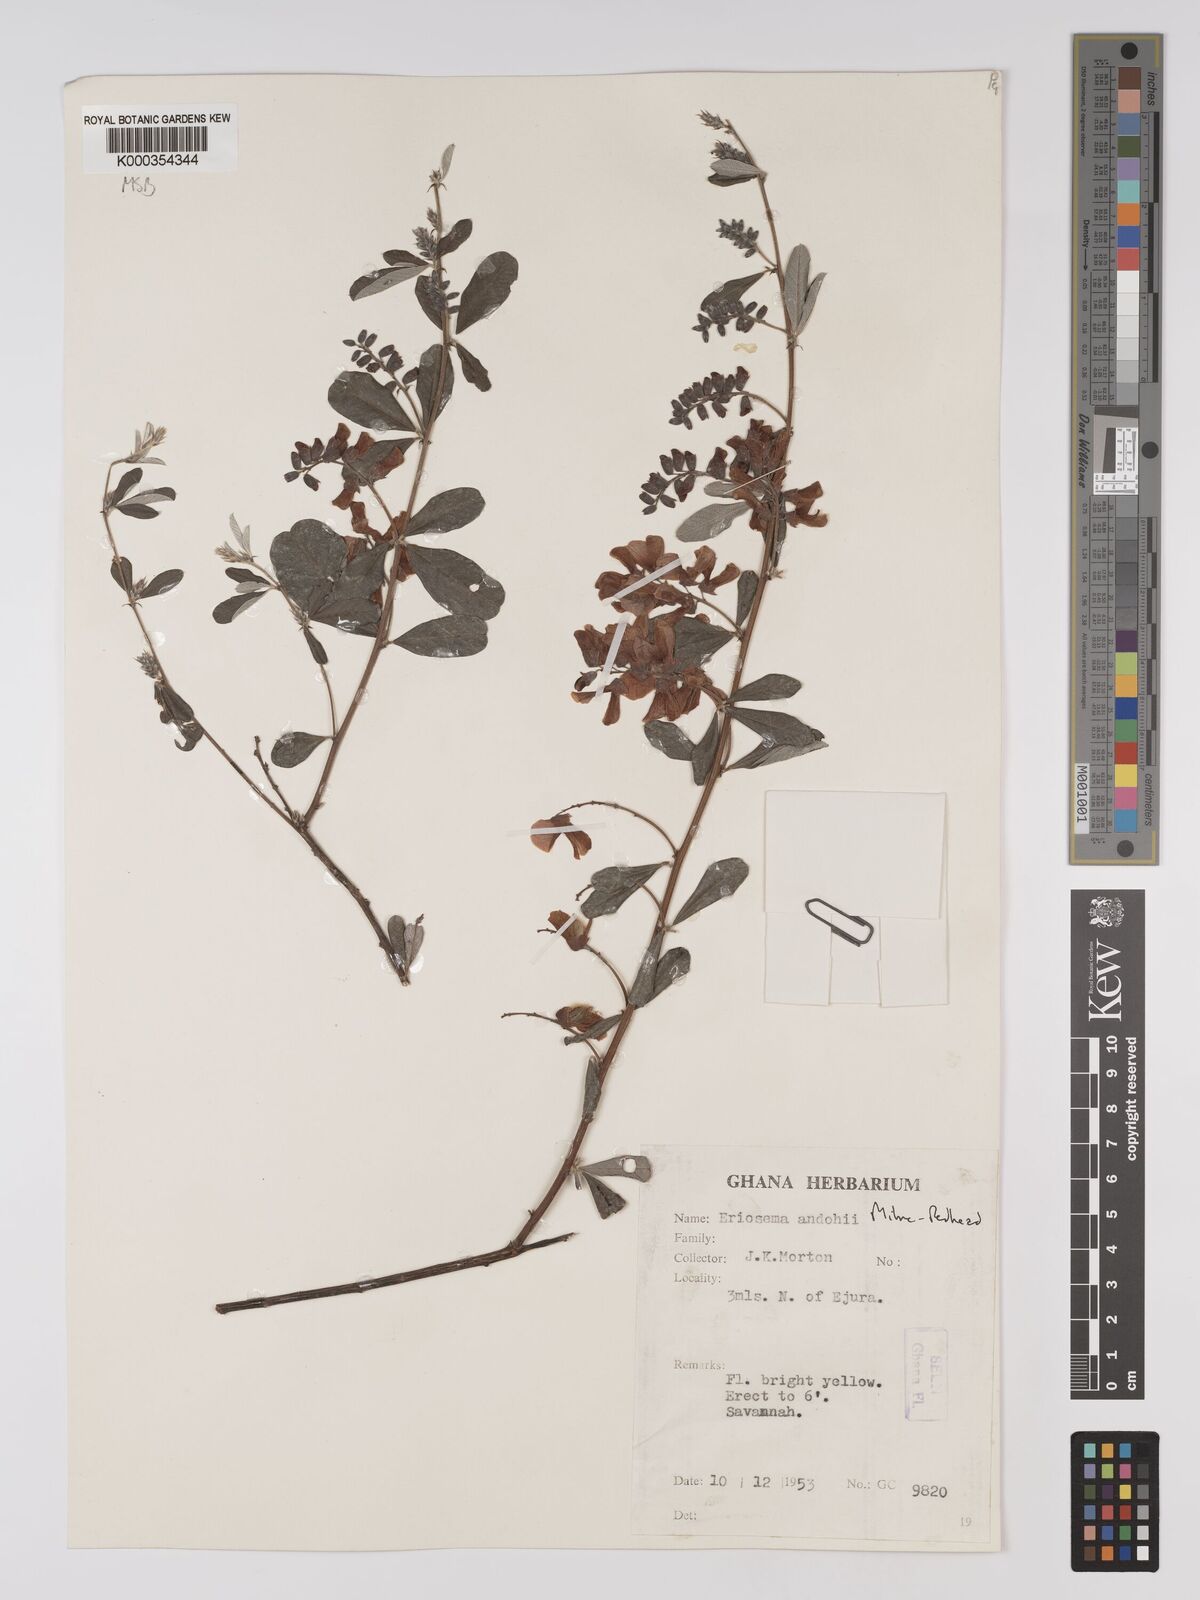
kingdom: Plantae
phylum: Tracheophyta
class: Magnoliopsida
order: Fabales
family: Fabaceae
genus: Eriosema
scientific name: Eriosema andohii
